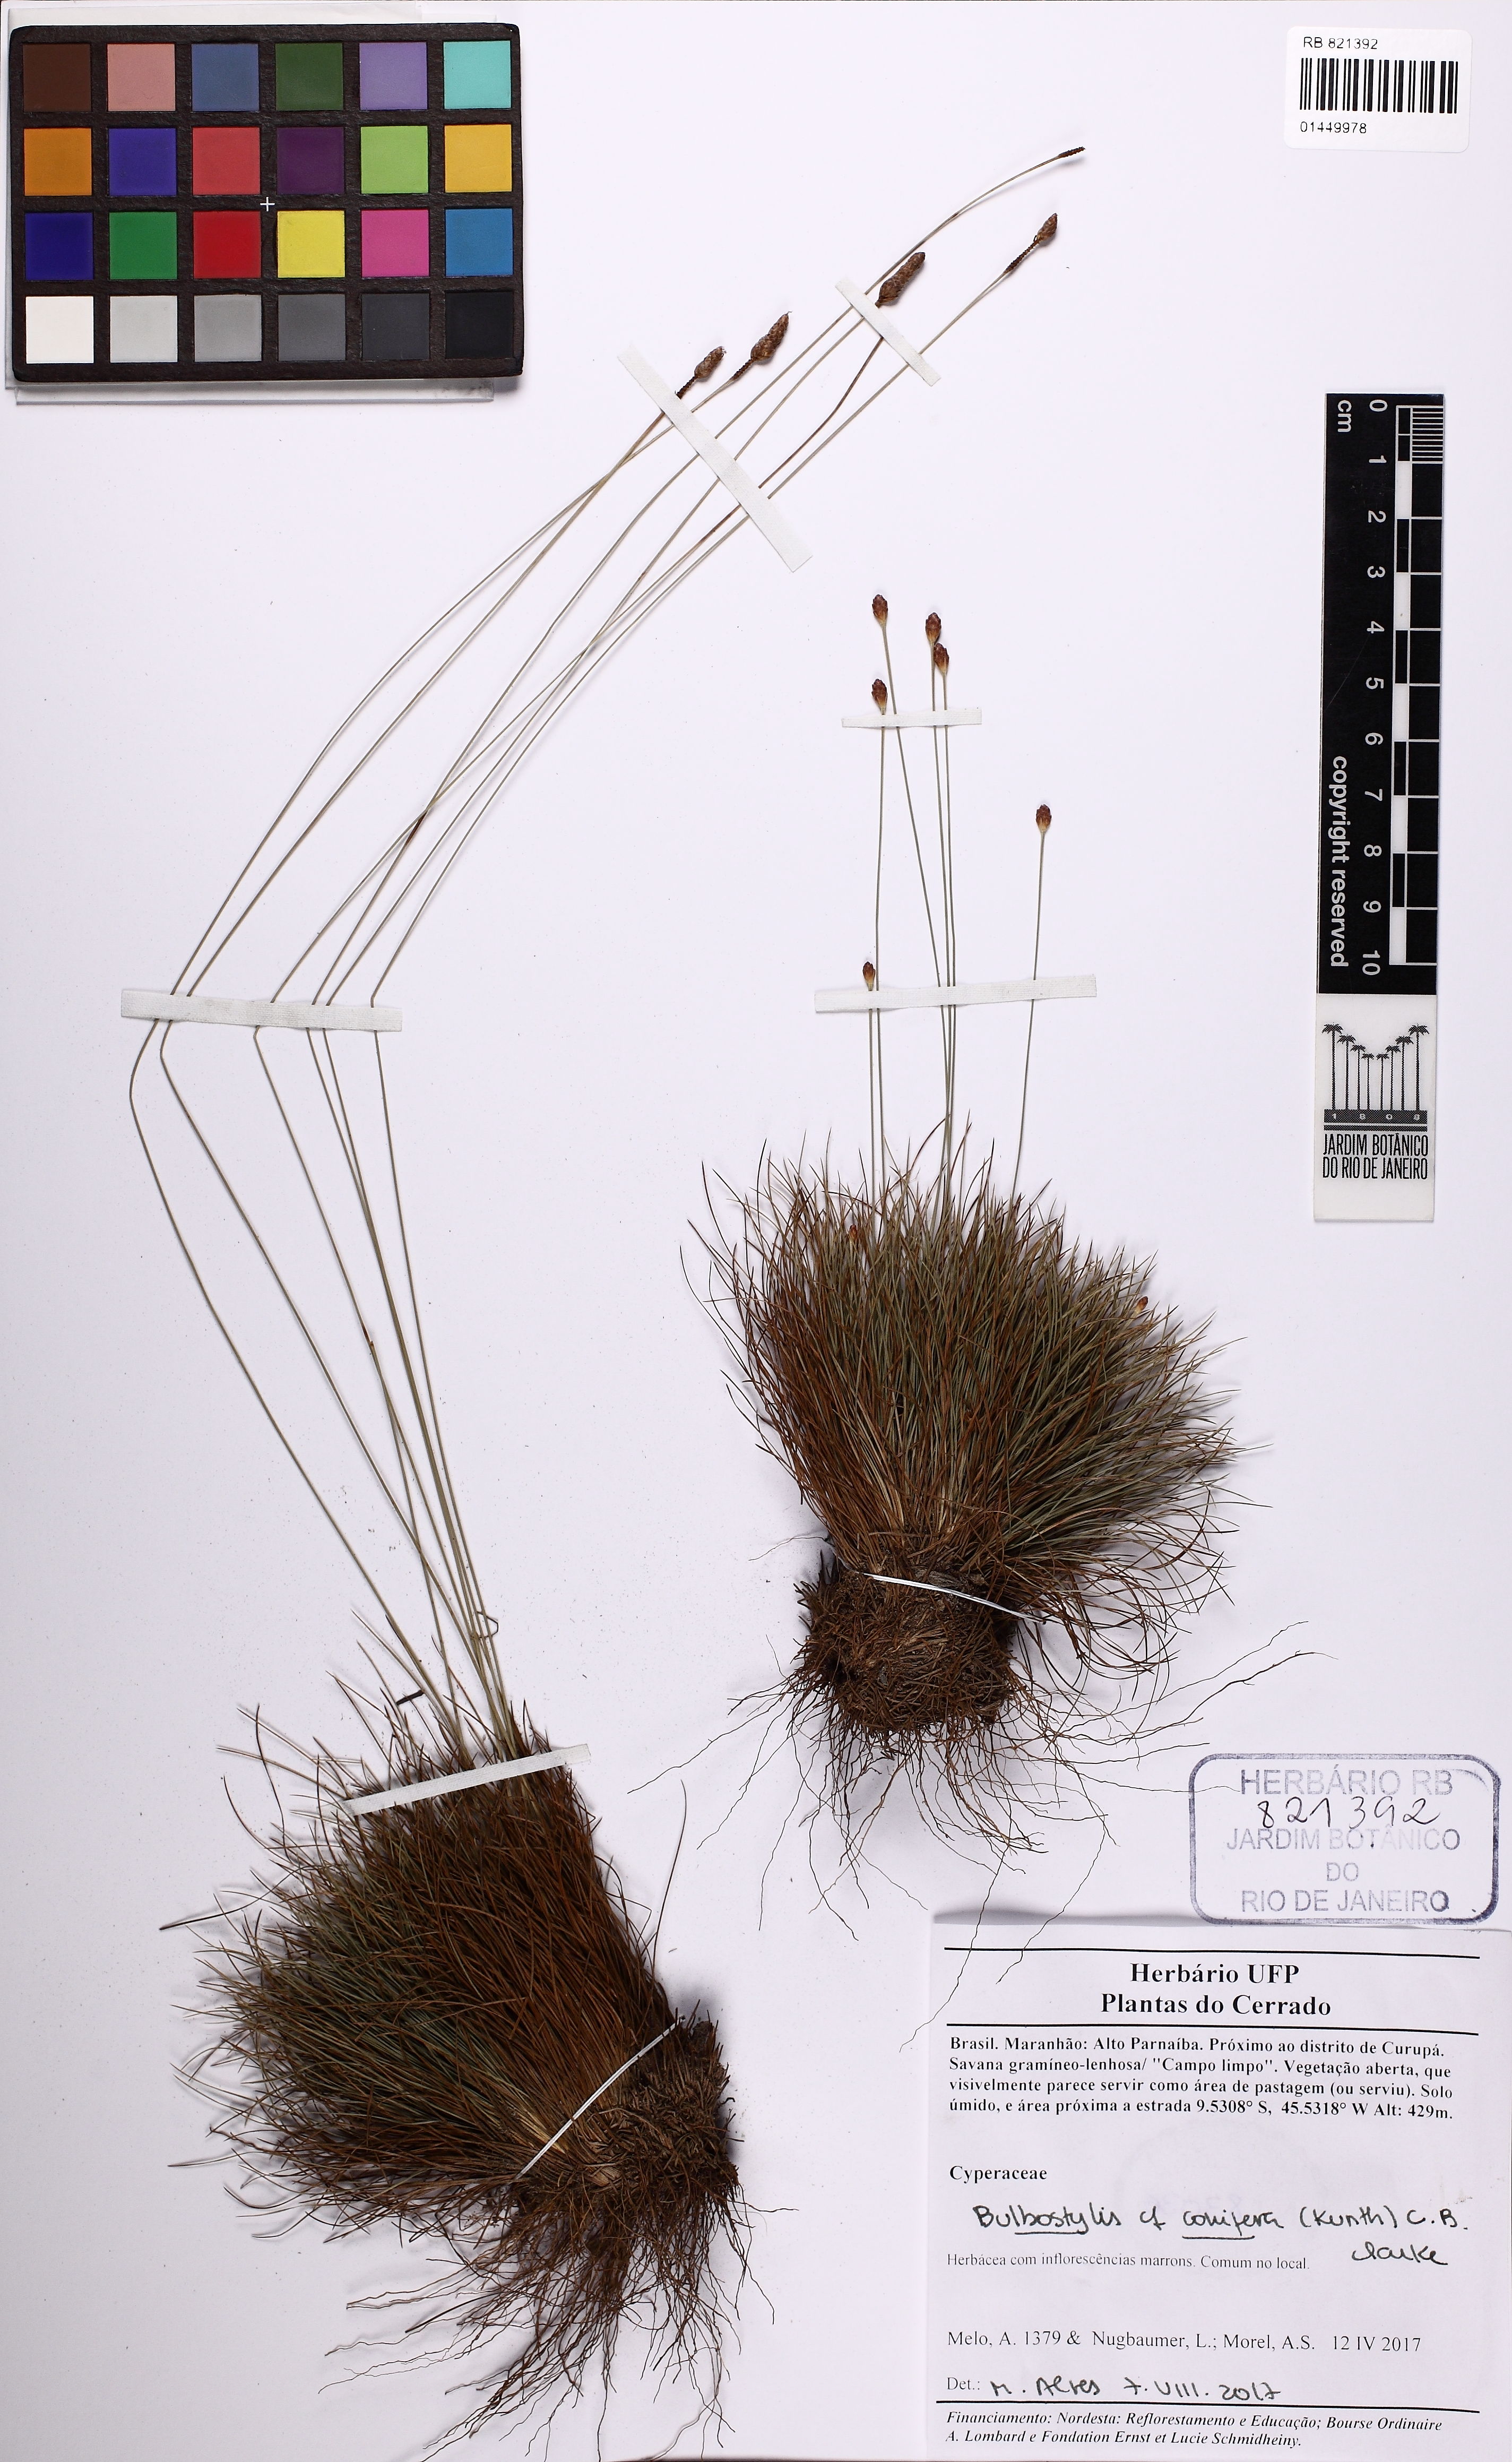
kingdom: Plantae
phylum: Tracheophyta
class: Liliopsida
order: Poales
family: Cyperaceae
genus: Bulbostylis
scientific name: Bulbostylis conifera
